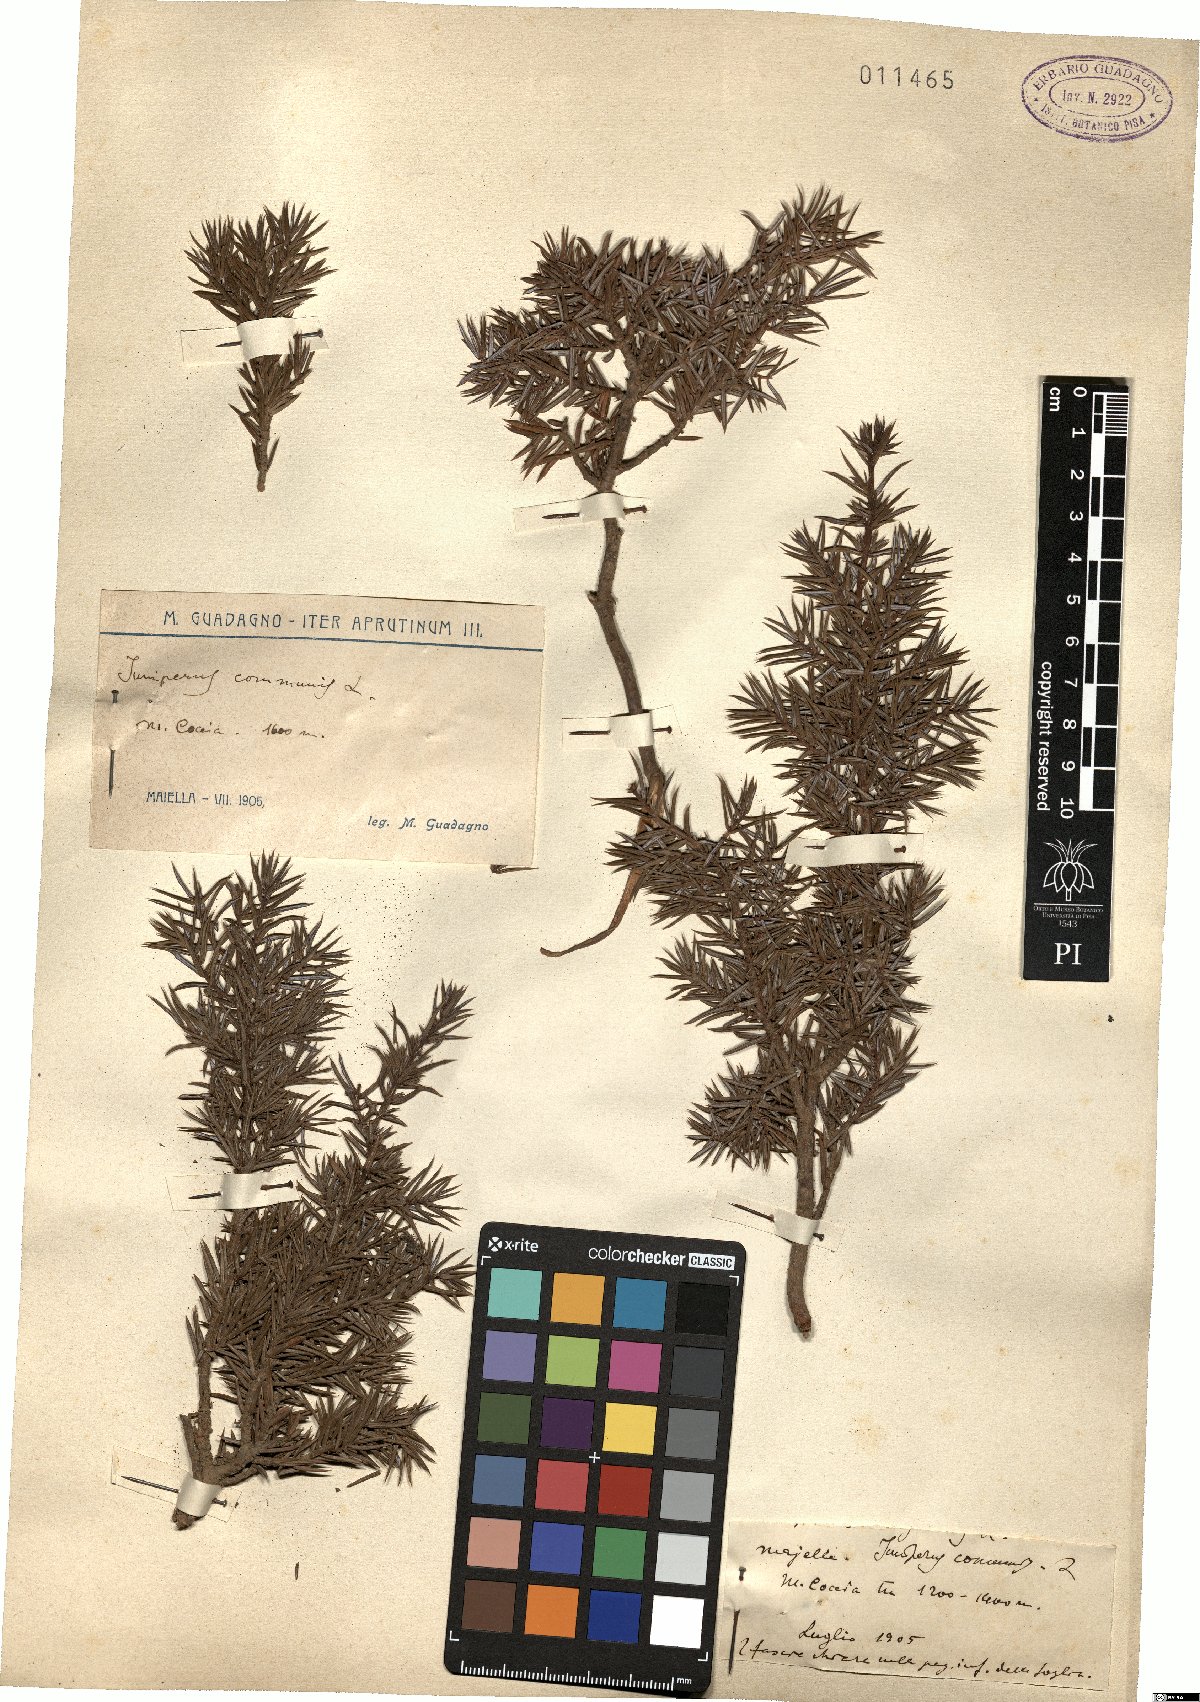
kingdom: Plantae
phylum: Tracheophyta
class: Pinopsida
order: Pinales
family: Cupressaceae
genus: Juniperus
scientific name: Juniperus communis
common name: Common juniper
